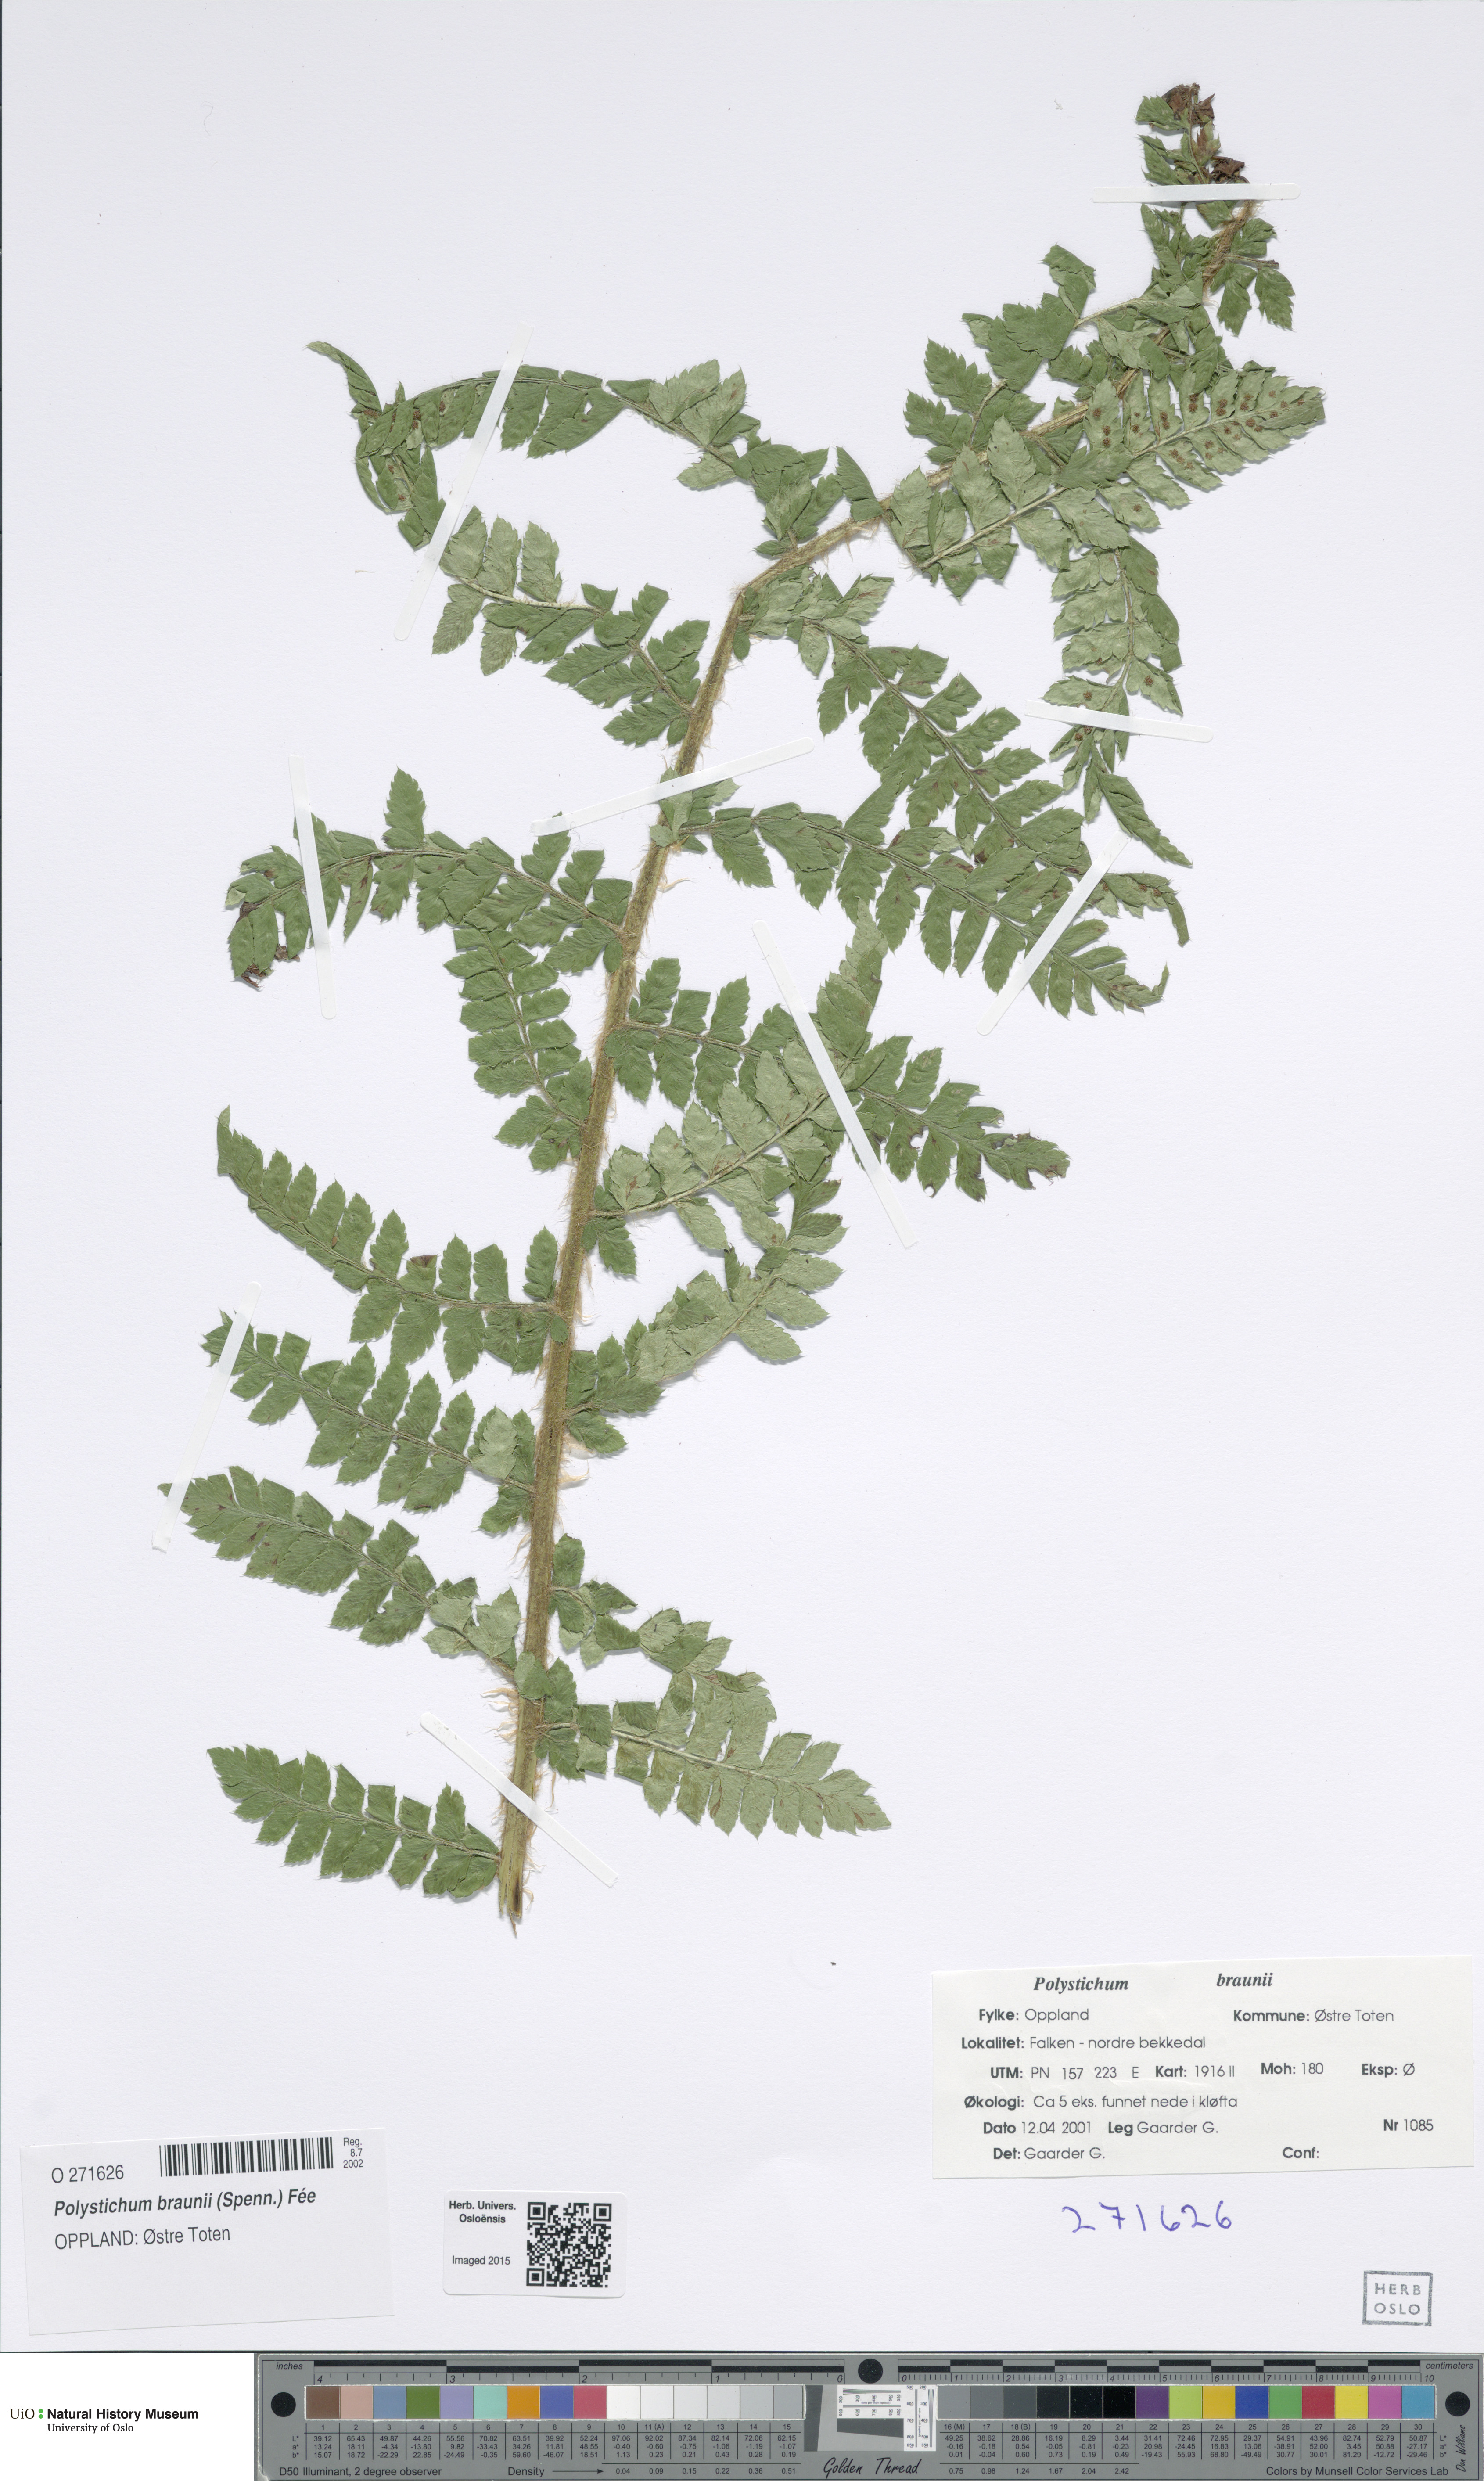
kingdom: Plantae
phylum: Tracheophyta
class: Polypodiopsida
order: Polypodiales
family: Dryopteridaceae
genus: Polystichum
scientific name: Polystichum braunii
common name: Braun's holly fern
